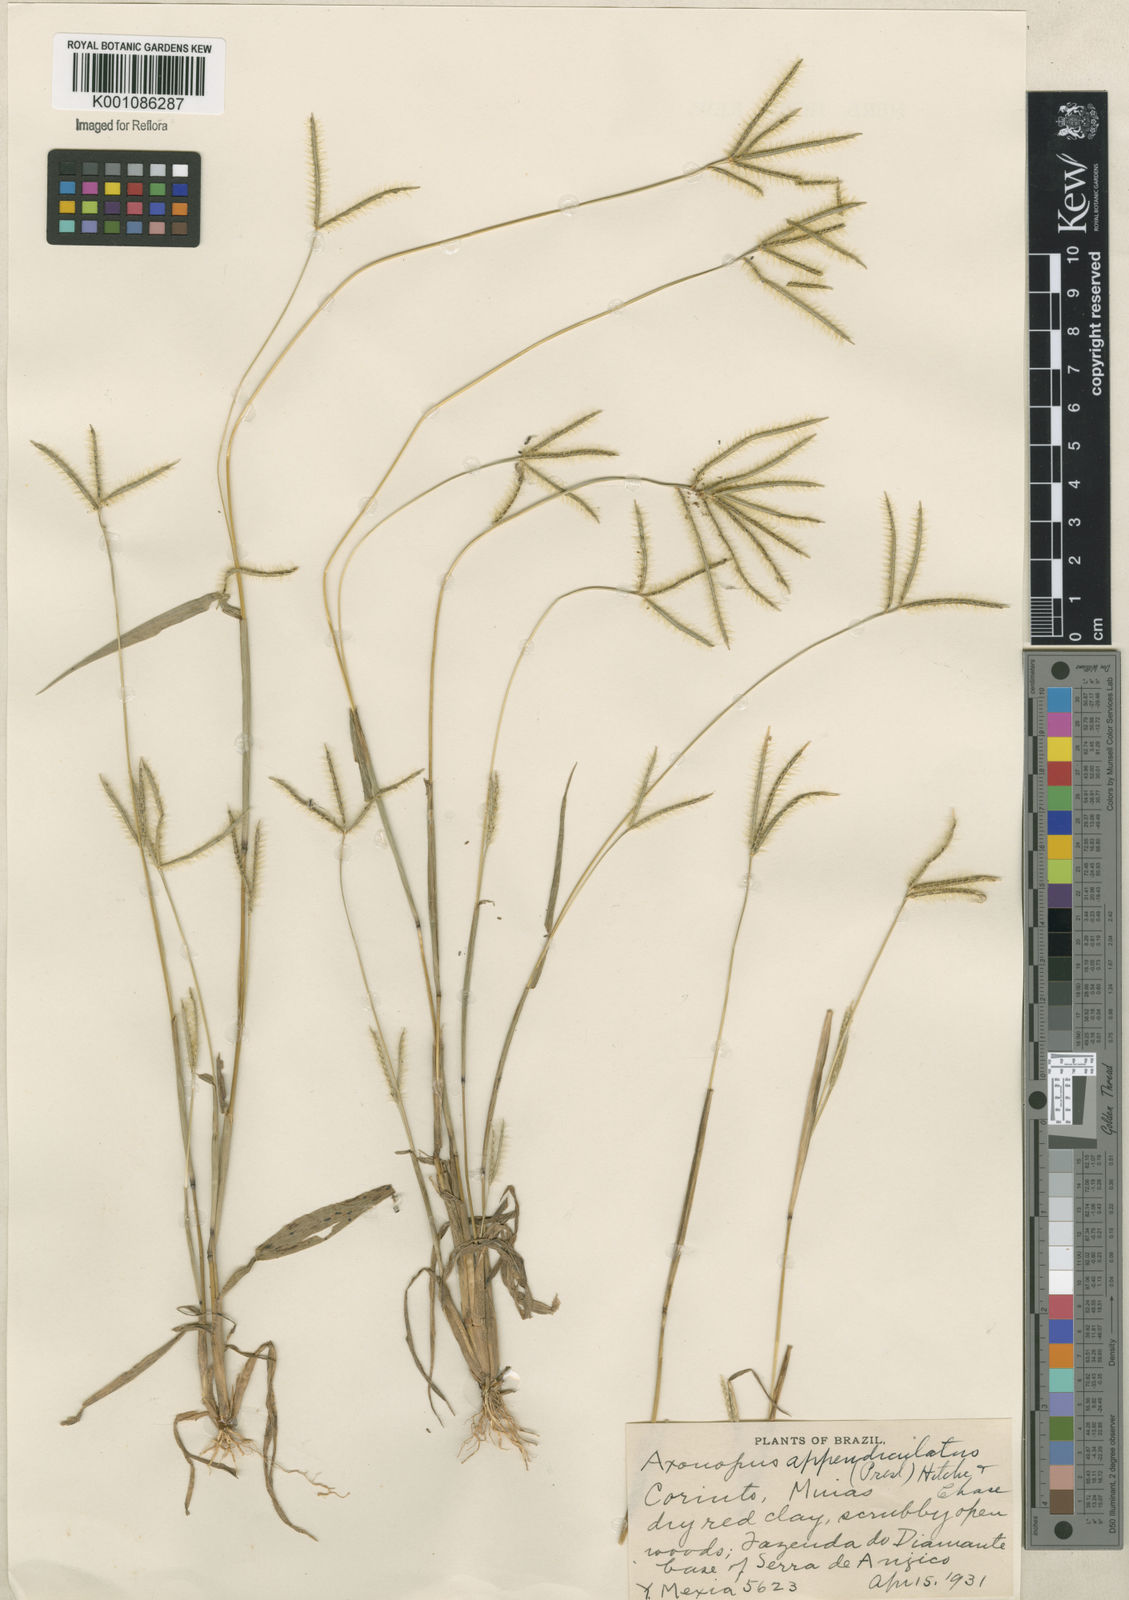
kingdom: Plantae
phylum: Tracheophyta
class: Liliopsida
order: Poales
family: Poaceae
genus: Axonopus
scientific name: Axonopus chrysoblepharis
